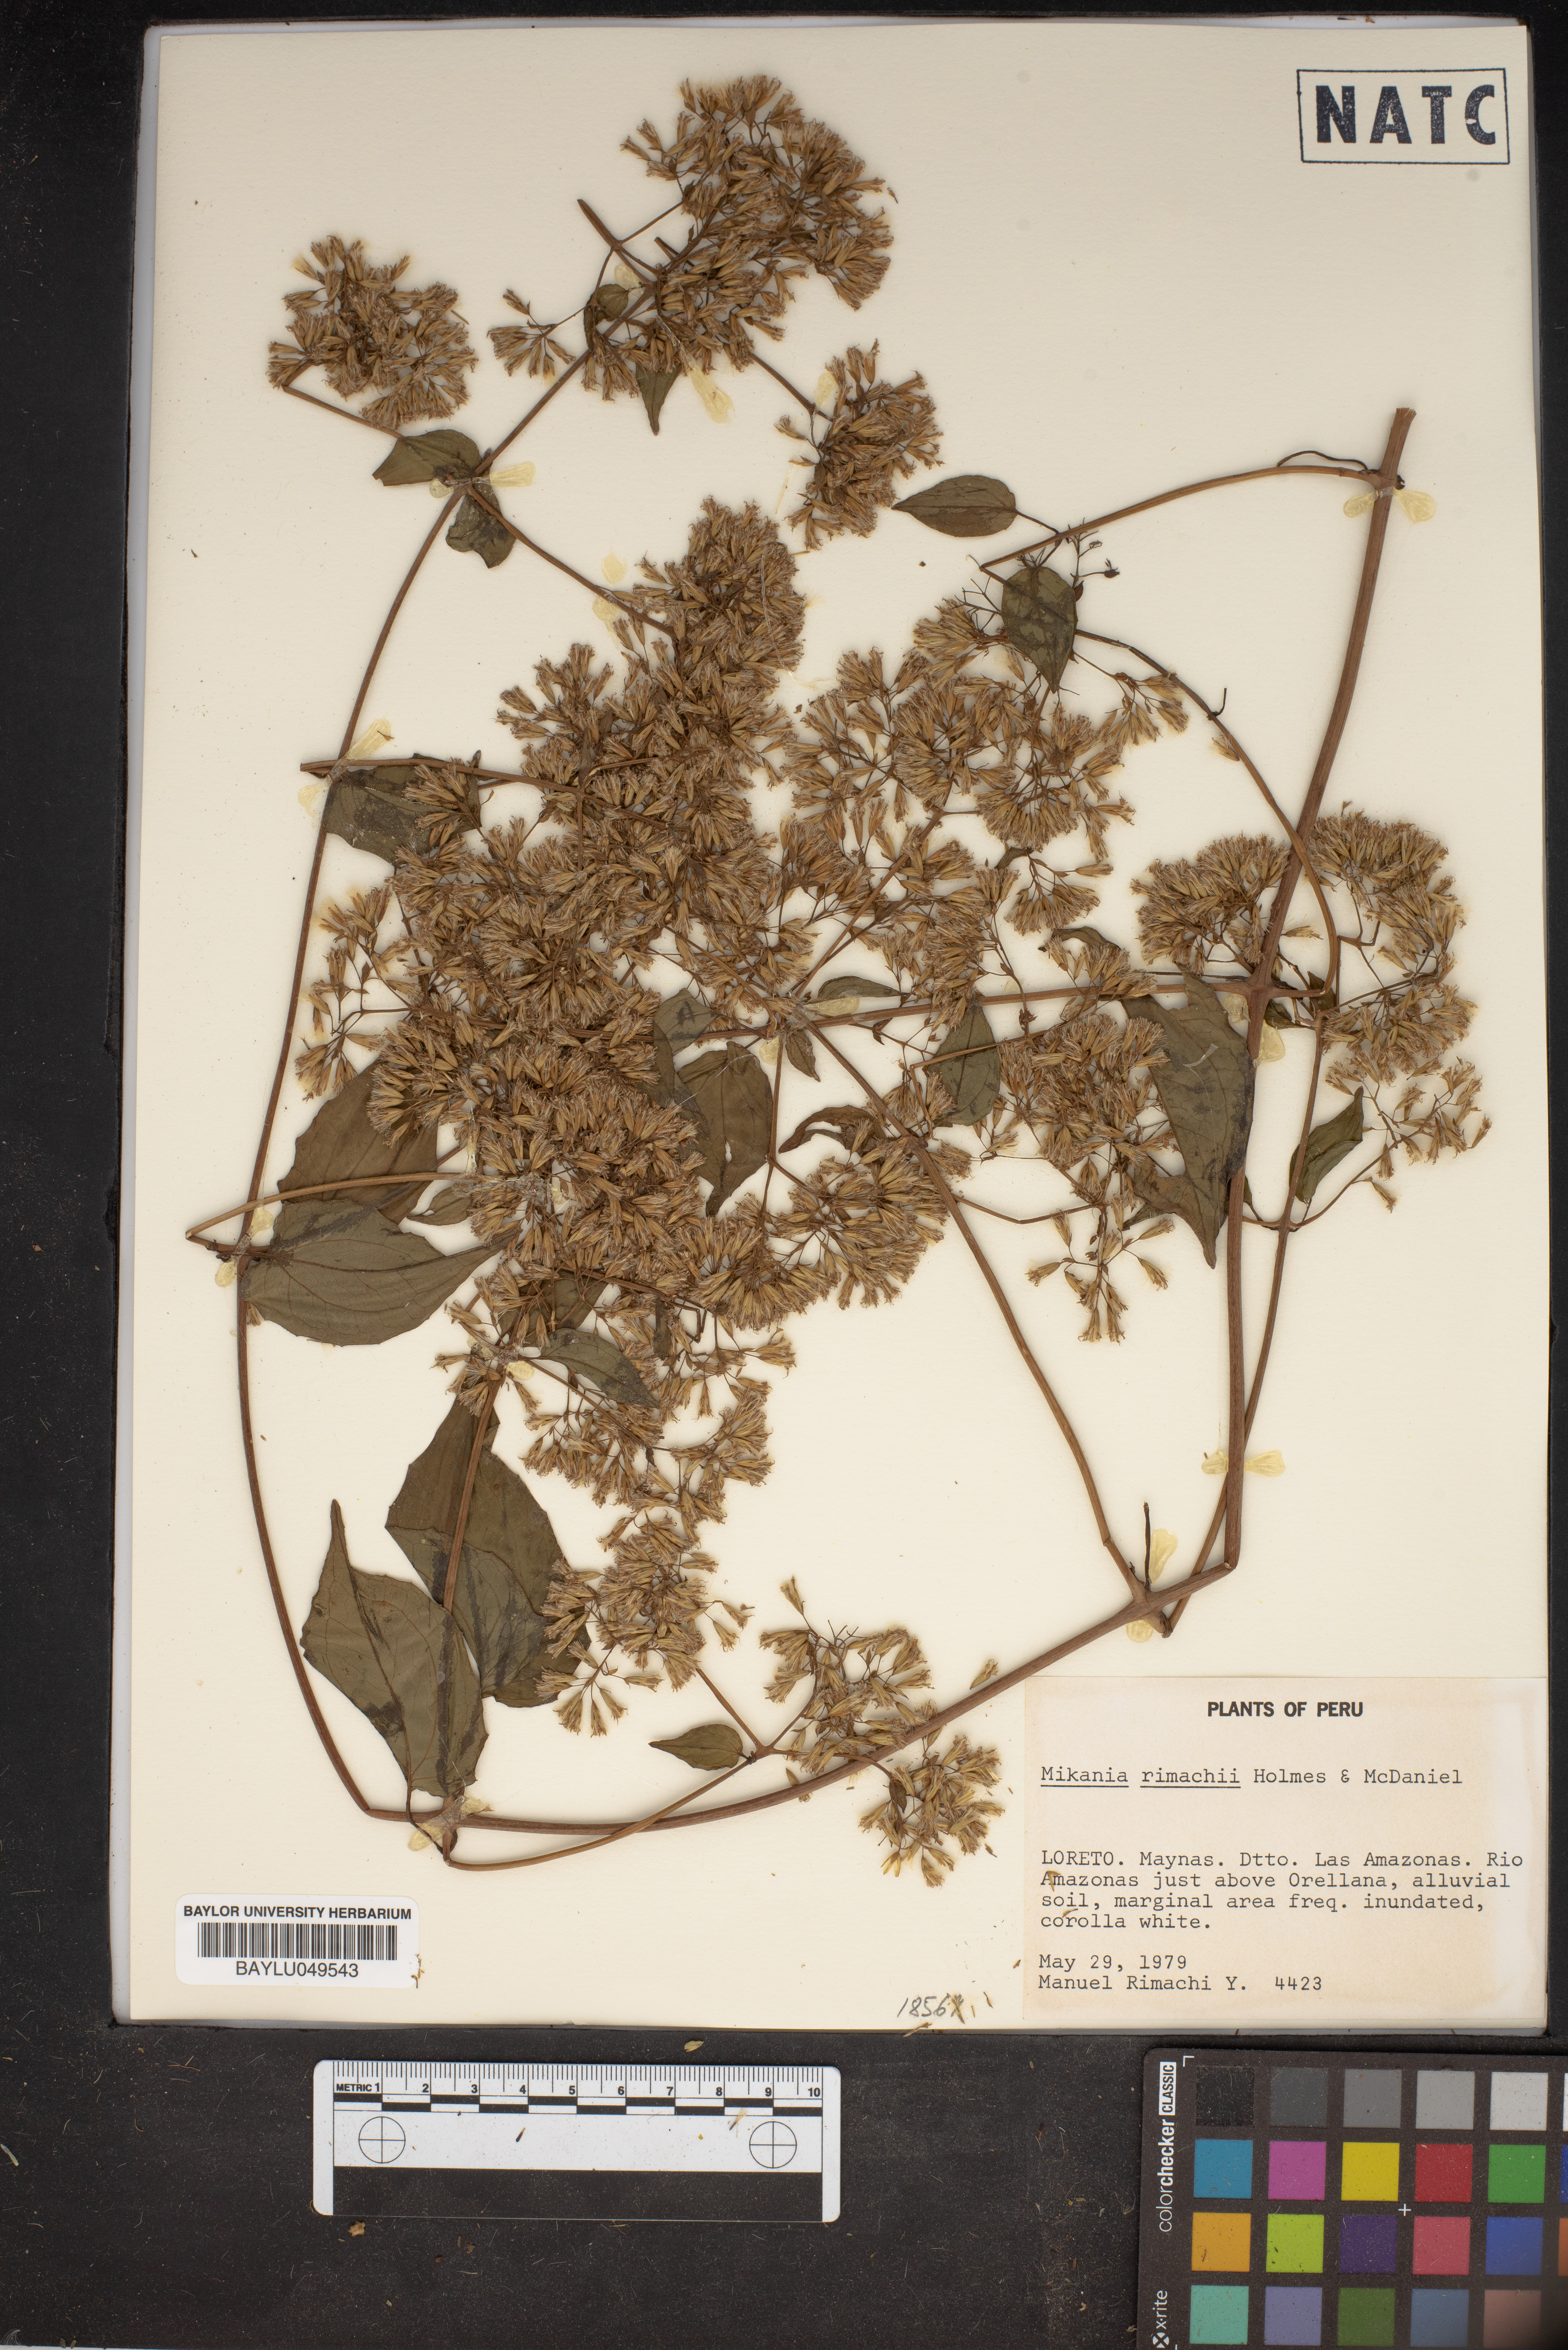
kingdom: Plantae
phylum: Tracheophyta
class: Magnoliopsida
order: Asterales
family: Asteraceae
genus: Mikania
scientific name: Mikania rimachii
